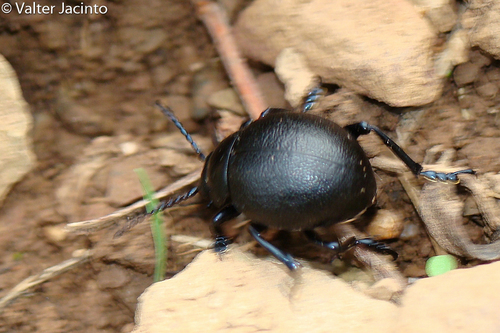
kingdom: Animalia
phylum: Arthropoda
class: Insecta
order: Coleoptera
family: Chrysomelidae
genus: Timarcha
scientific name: Timarcha
